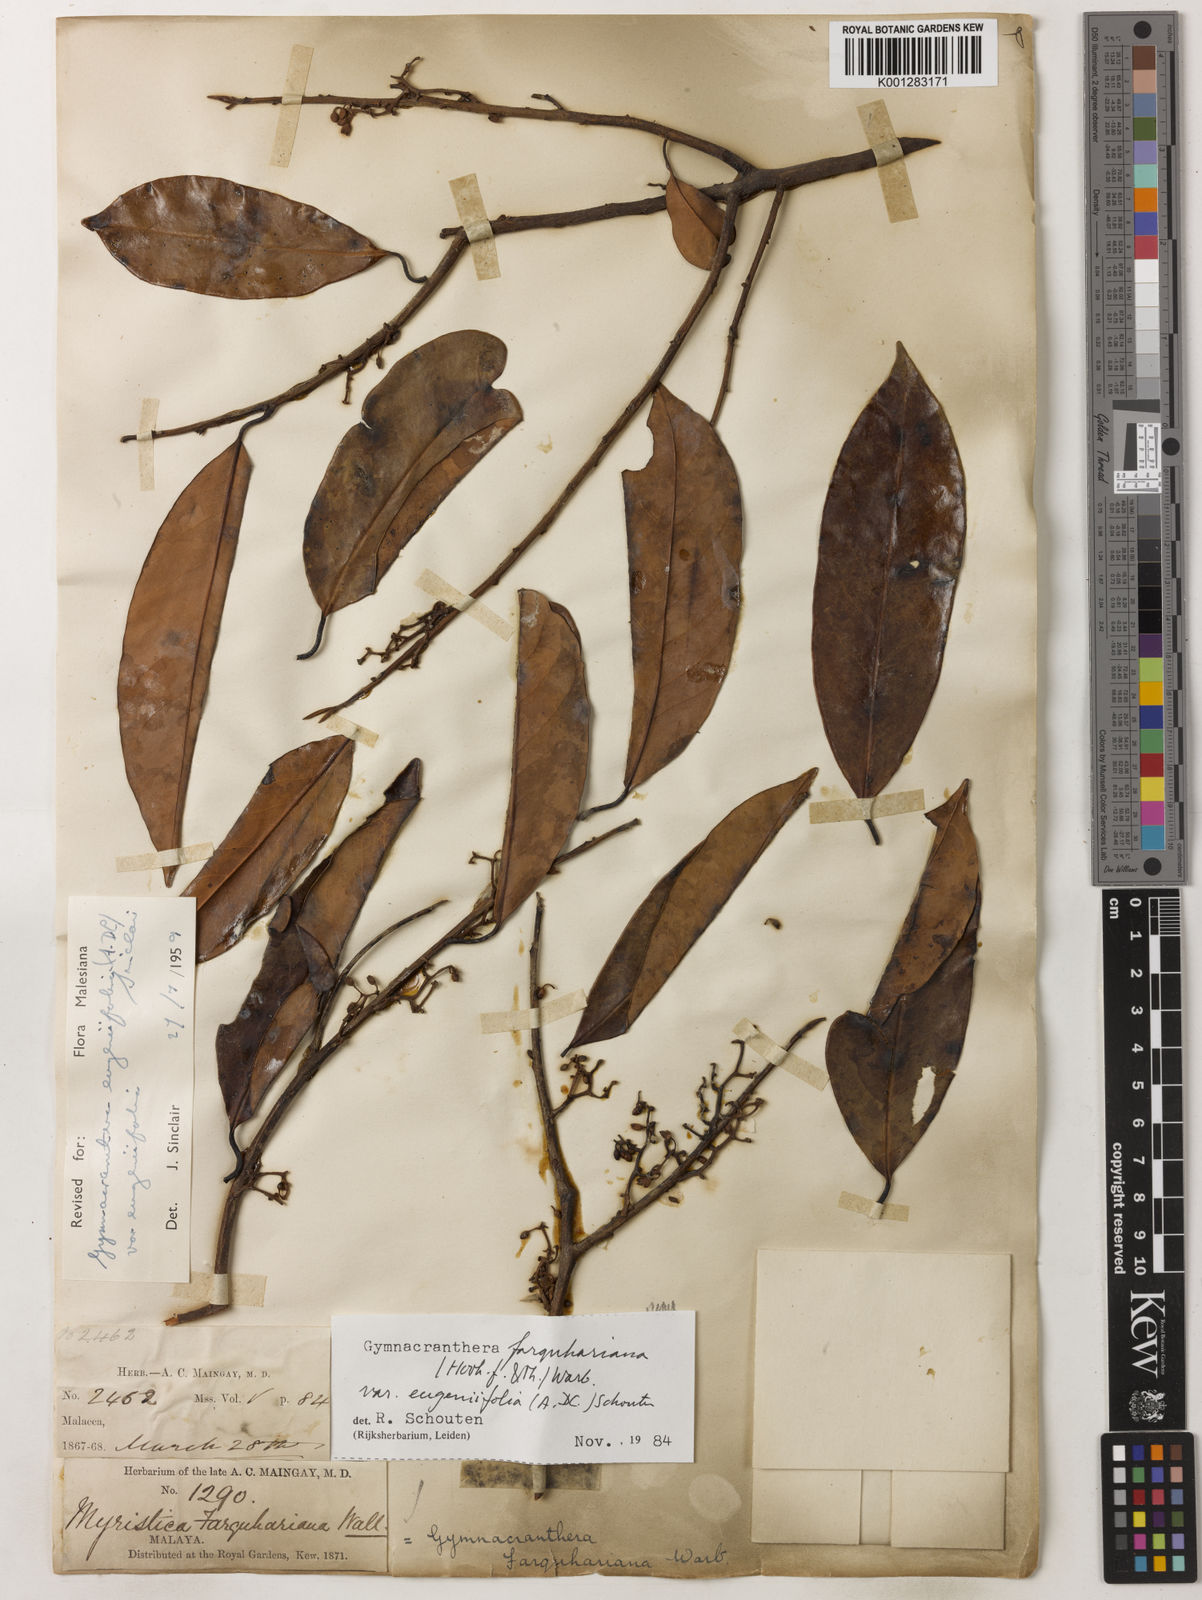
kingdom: Plantae
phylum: Tracheophyta
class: Magnoliopsida
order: Magnoliales
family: Myristicaceae
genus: Gymnacranthera
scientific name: Gymnacranthera farquhariana
